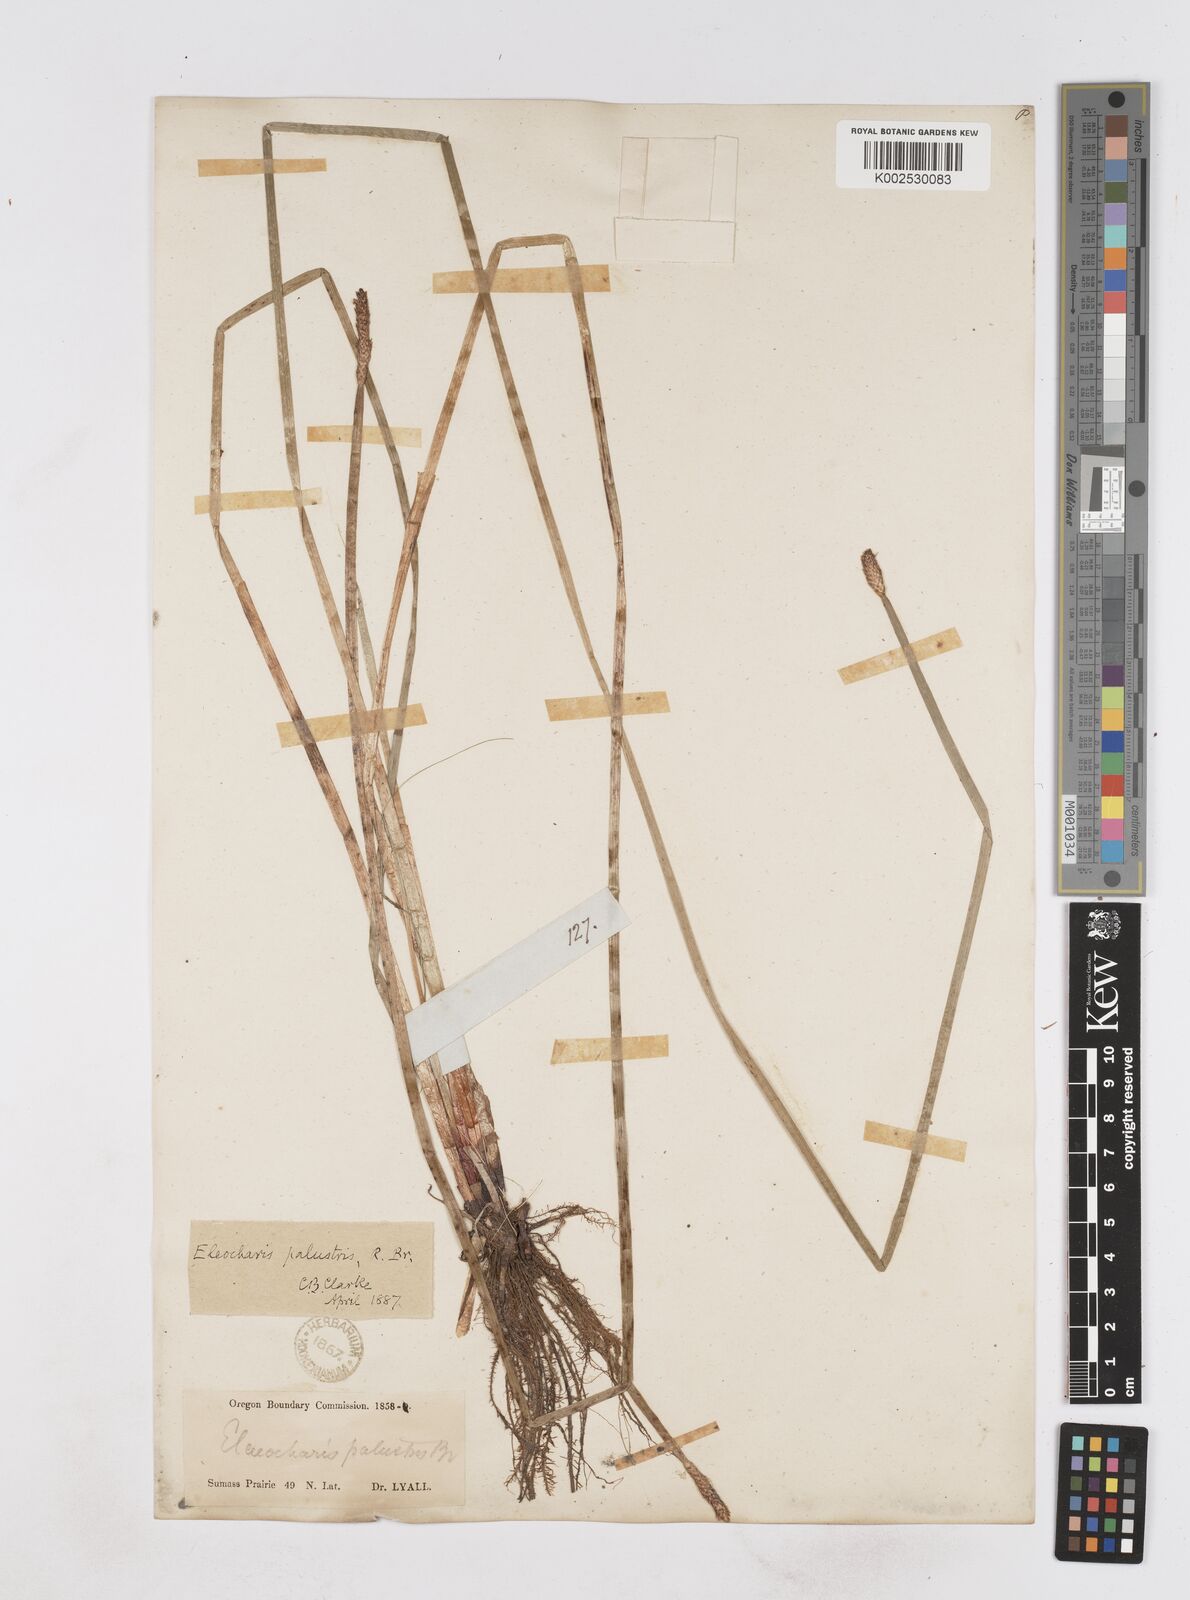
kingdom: Plantae
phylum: Tracheophyta
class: Liliopsida
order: Poales
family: Cyperaceae
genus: Eleocharis
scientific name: Eleocharis palustris
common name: Common spike-rush
